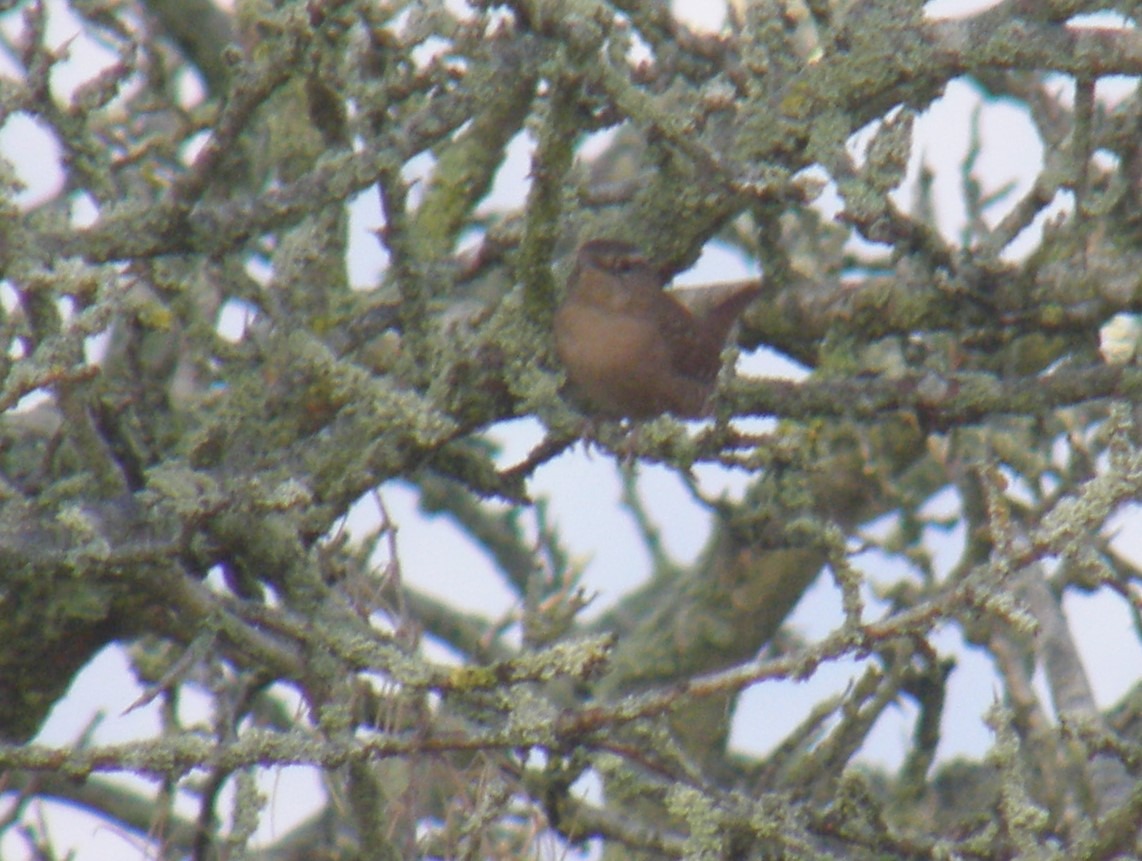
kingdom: Animalia
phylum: Chordata
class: Aves
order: Passeriformes
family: Troglodytidae
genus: Troglodytes
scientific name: Troglodytes troglodytes
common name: Gærdesmutte
